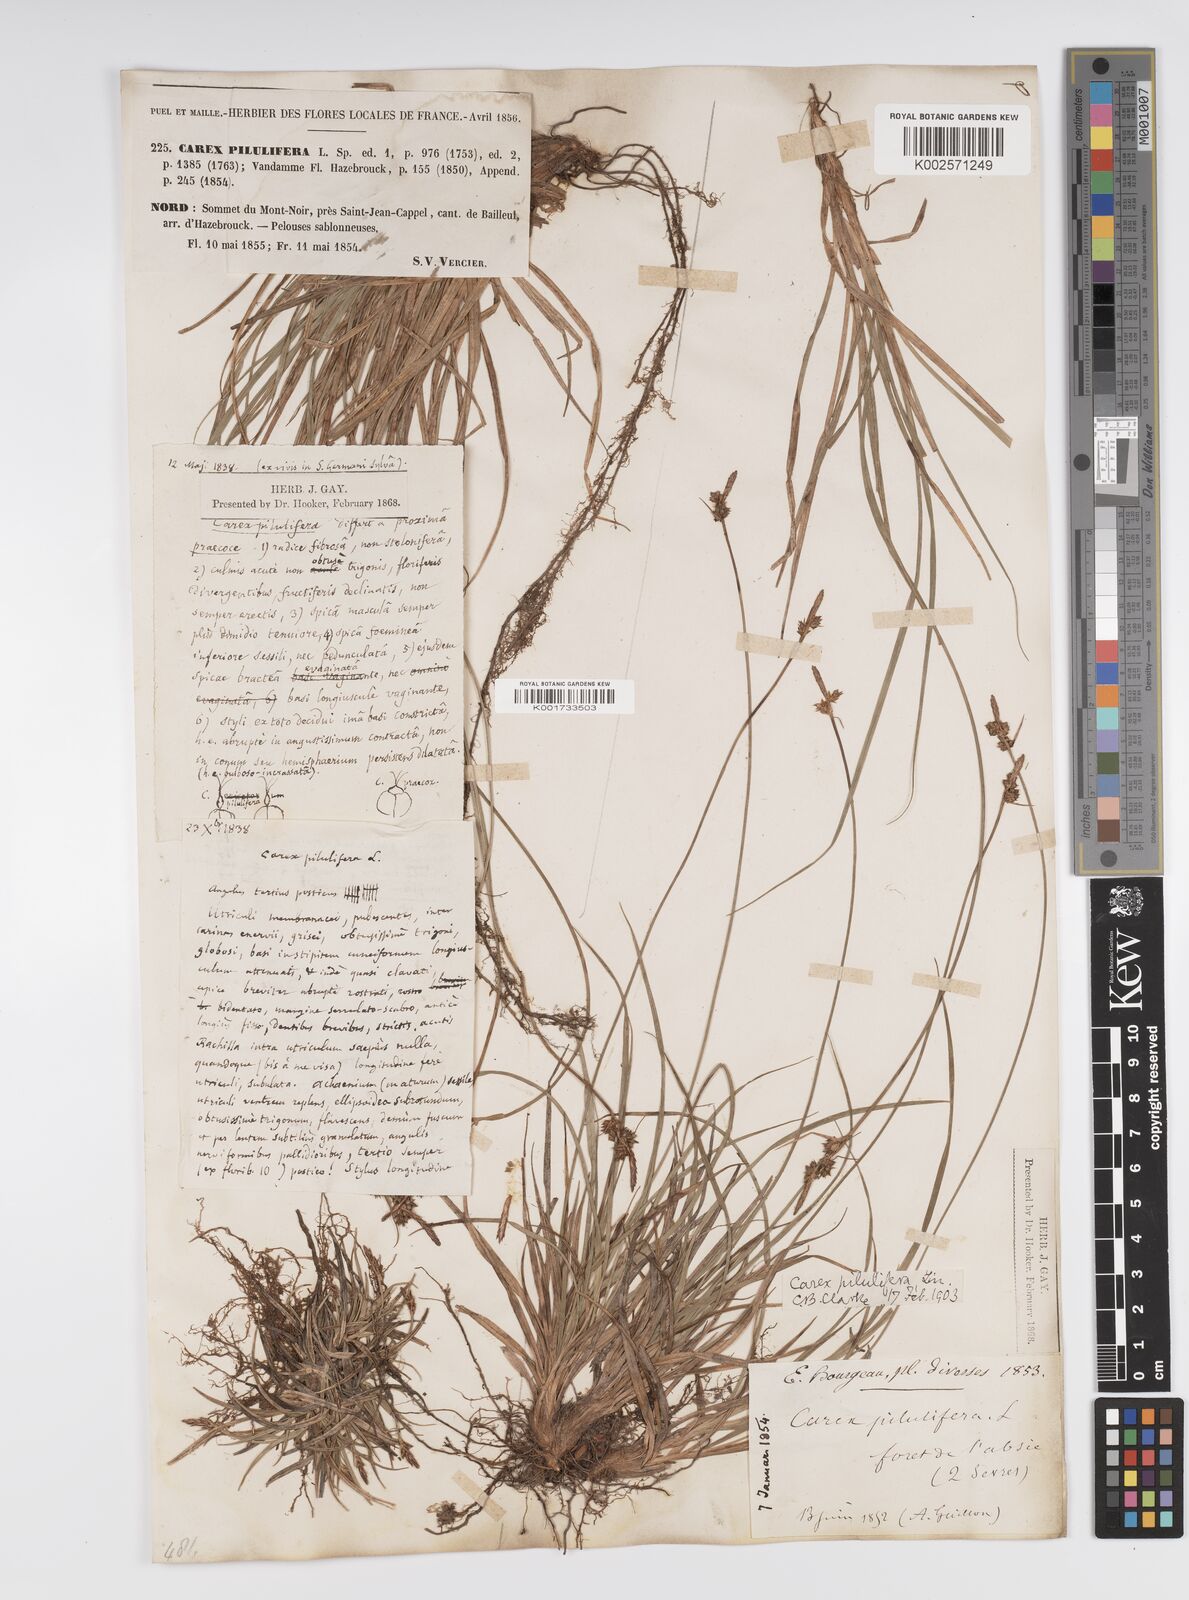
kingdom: Plantae
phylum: Tracheophyta
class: Liliopsida
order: Poales
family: Cyperaceae
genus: Carex
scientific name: Carex pilulifera
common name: Pill sedge
